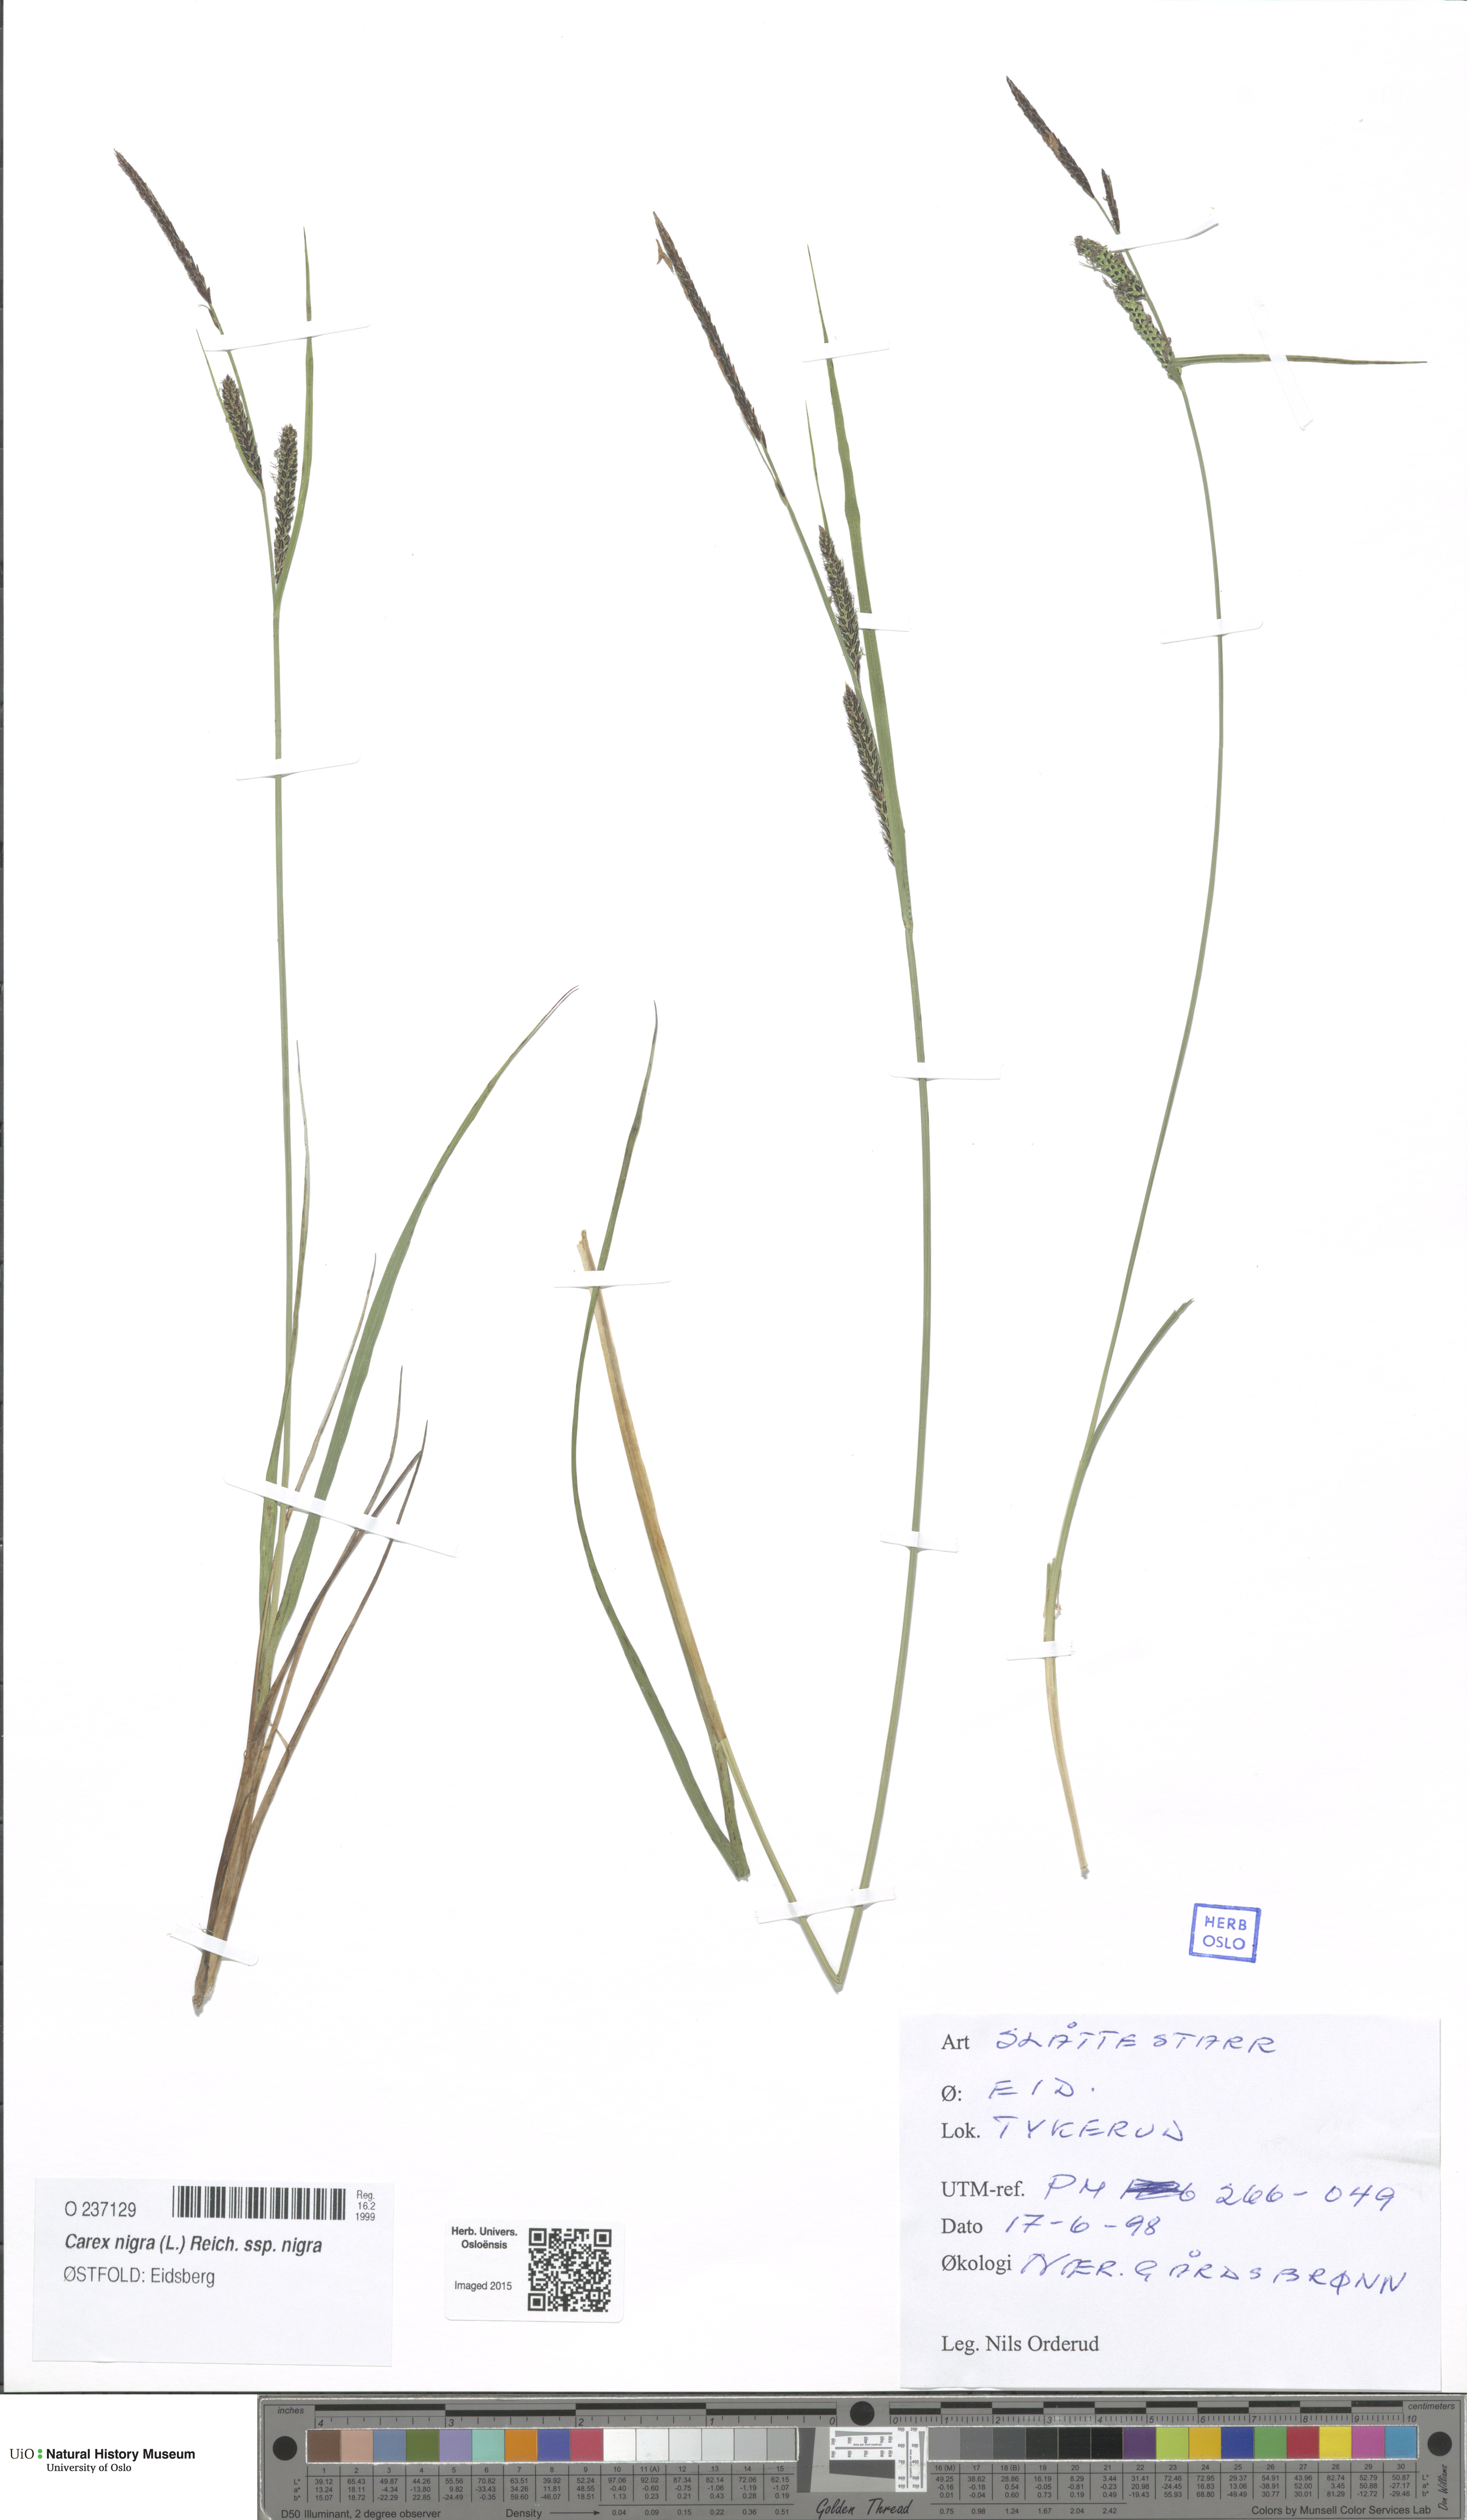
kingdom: Plantae
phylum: Tracheophyta
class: Liliopsida
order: Poales
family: Cyperaceae
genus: Carex
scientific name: Carex nigra
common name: Common sedge
